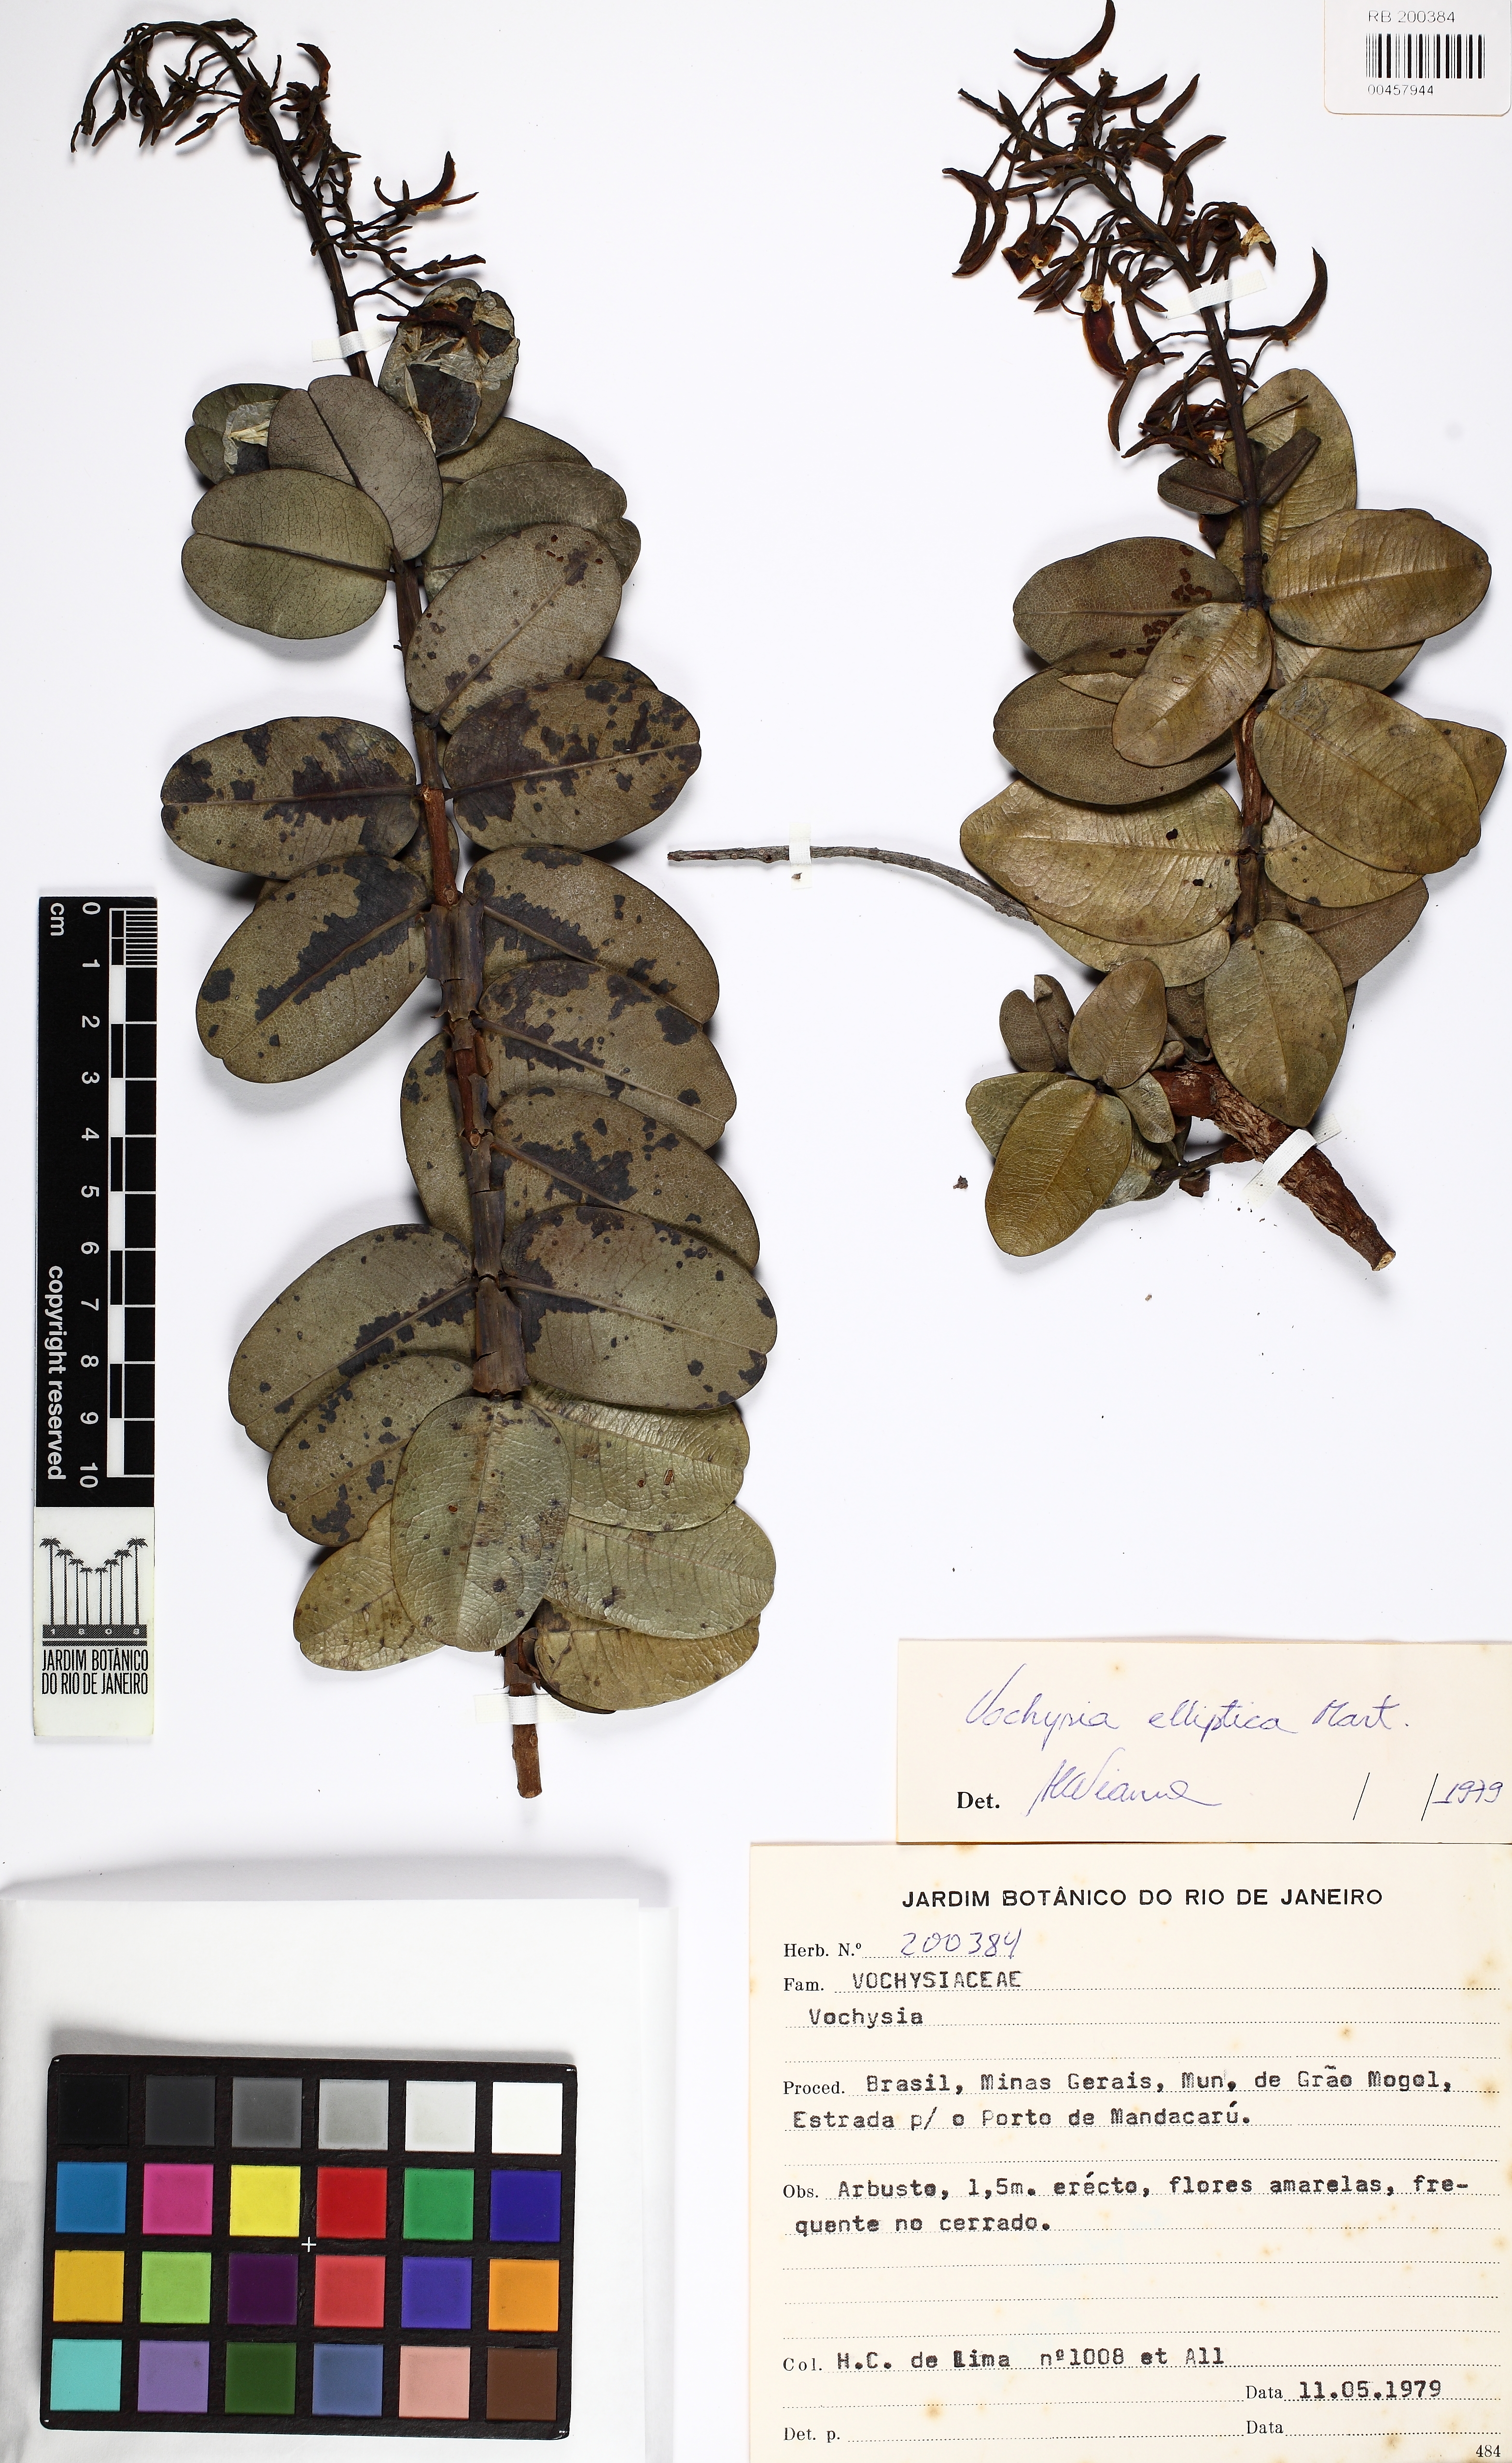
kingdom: Plantae
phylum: Tracheophyta
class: Magnoliopsida
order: Myrtales
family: Vochysiaceae
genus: Vochysia
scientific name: Vochysia elliptica
